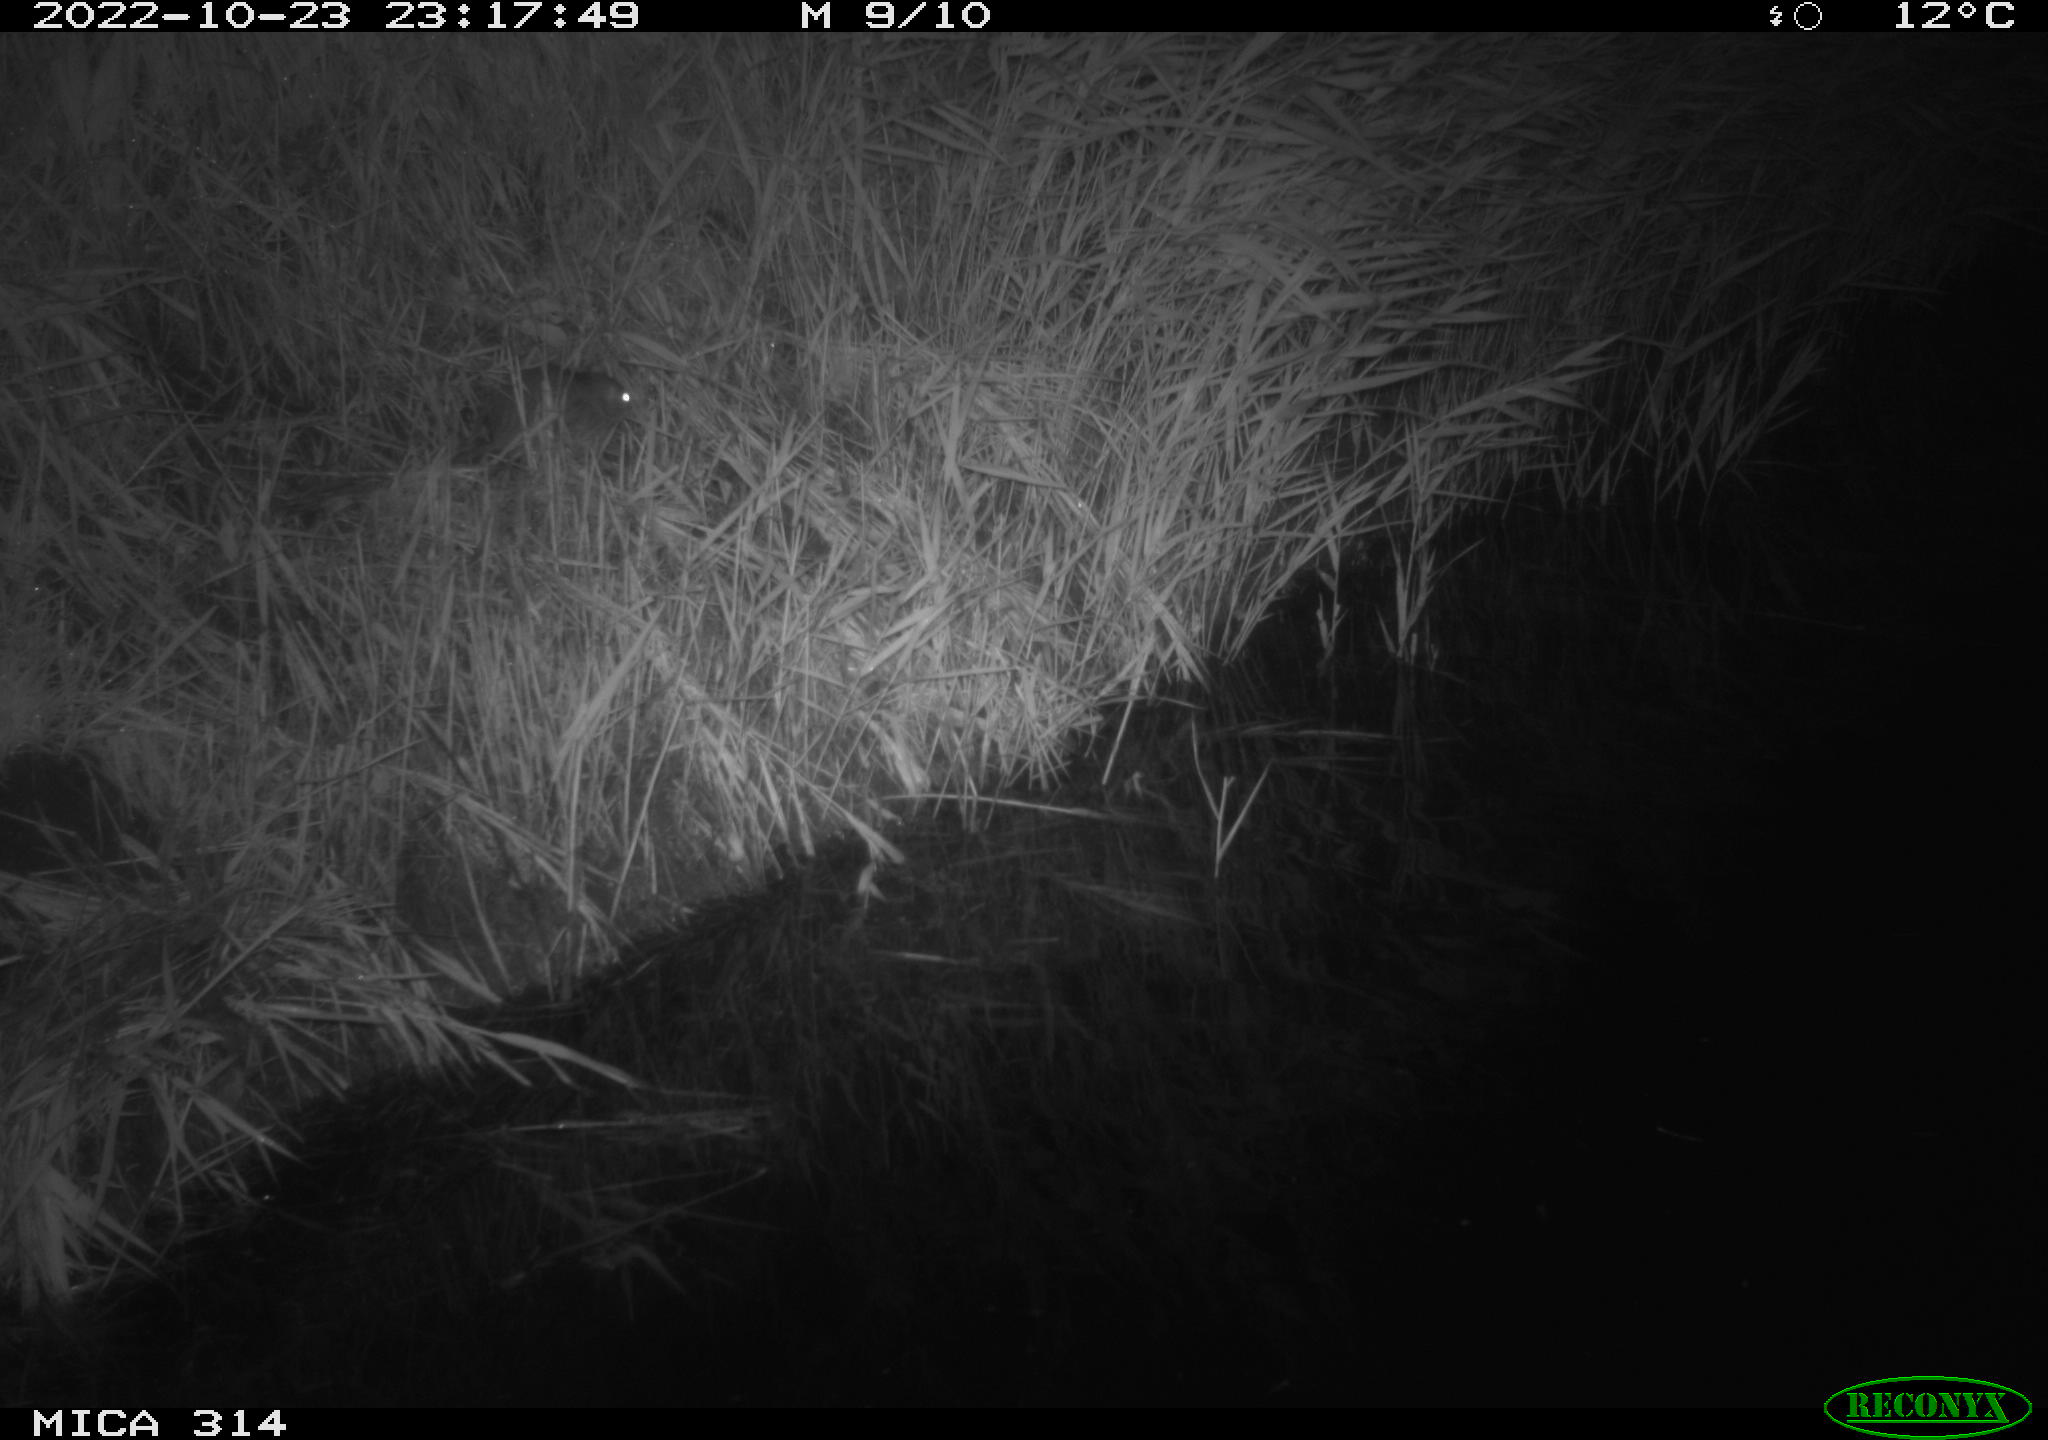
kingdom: Animalia
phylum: Chordata
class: Mammalia
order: Rodentia
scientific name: Rodentia
